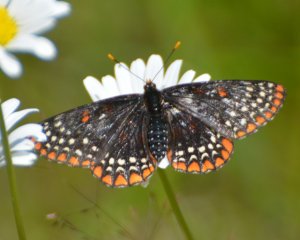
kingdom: Animalia
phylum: Arthropoda
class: Insecta
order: Lepidoptera
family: Nymphalidae
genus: Euphydryas
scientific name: Euphydryas phaeton
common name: Baltimore Checkerspot
